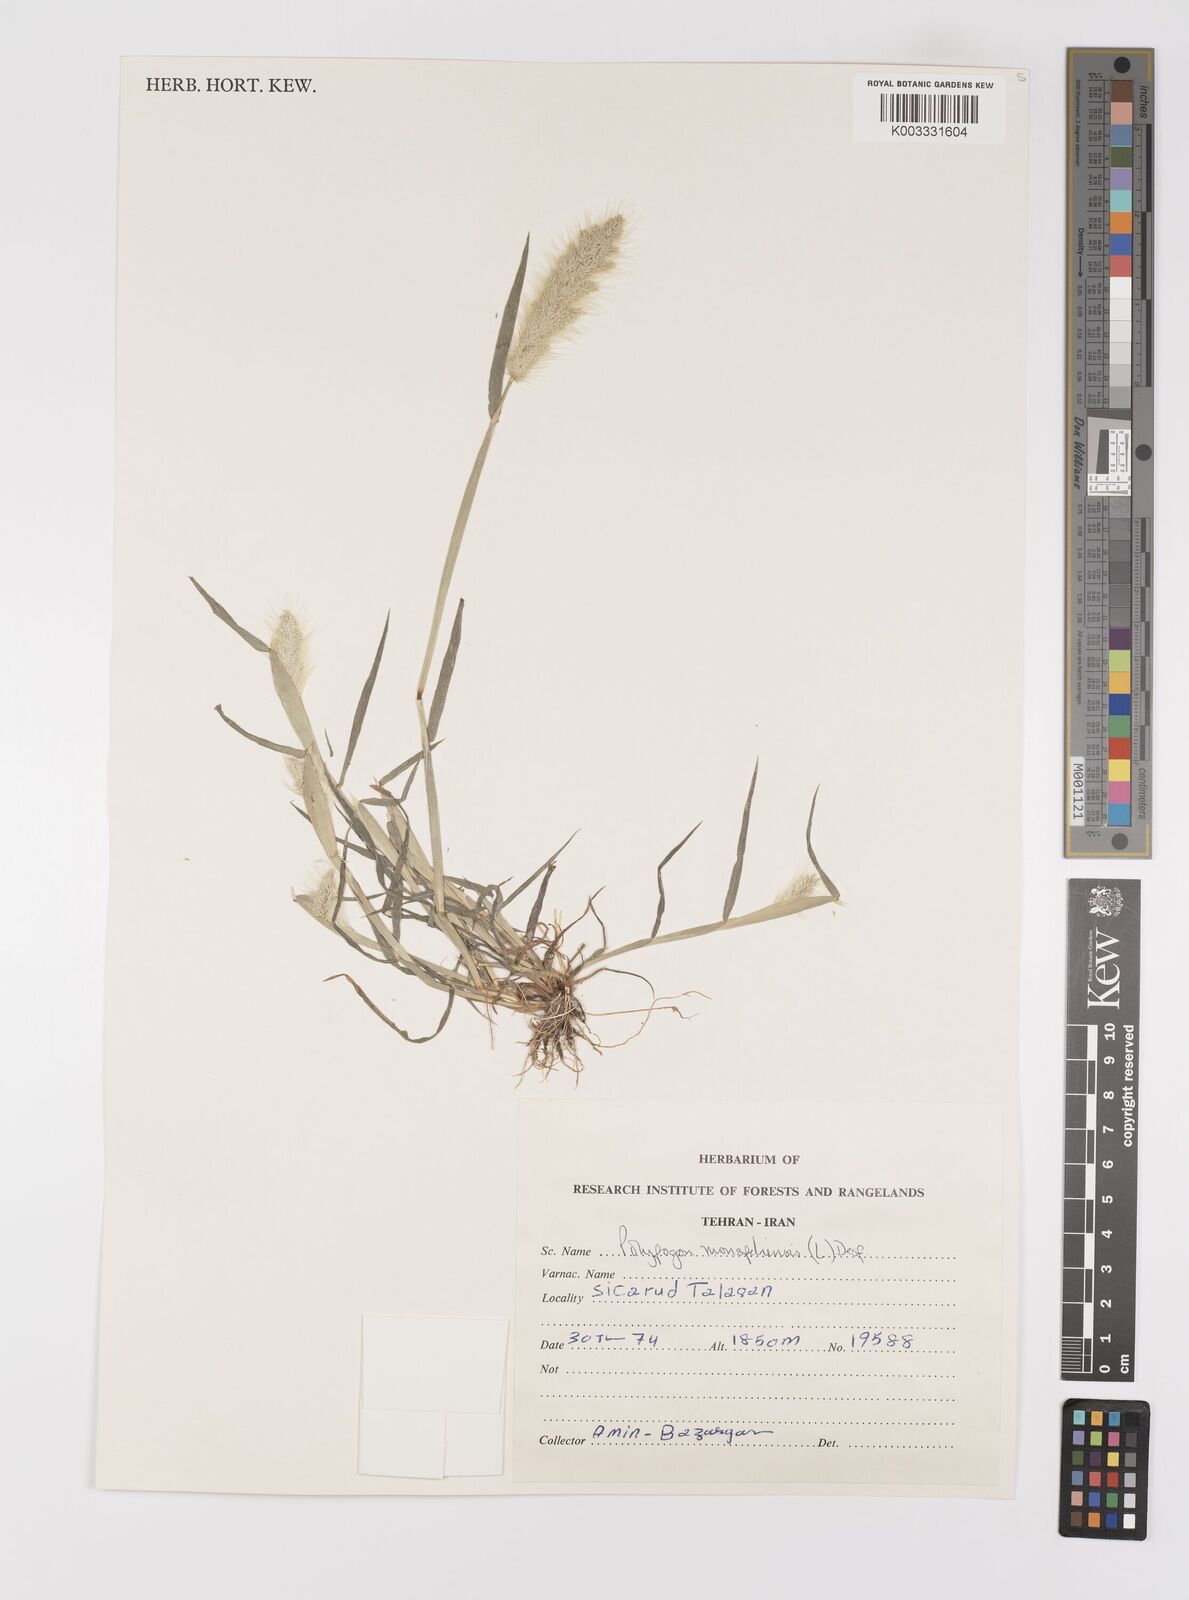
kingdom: Plantae
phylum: Tracheophyta
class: Liliopsida
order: Poales
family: Poaceae
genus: Polypogon
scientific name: Polypogon monspeliensis
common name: Annual rabbitsfoot grass
